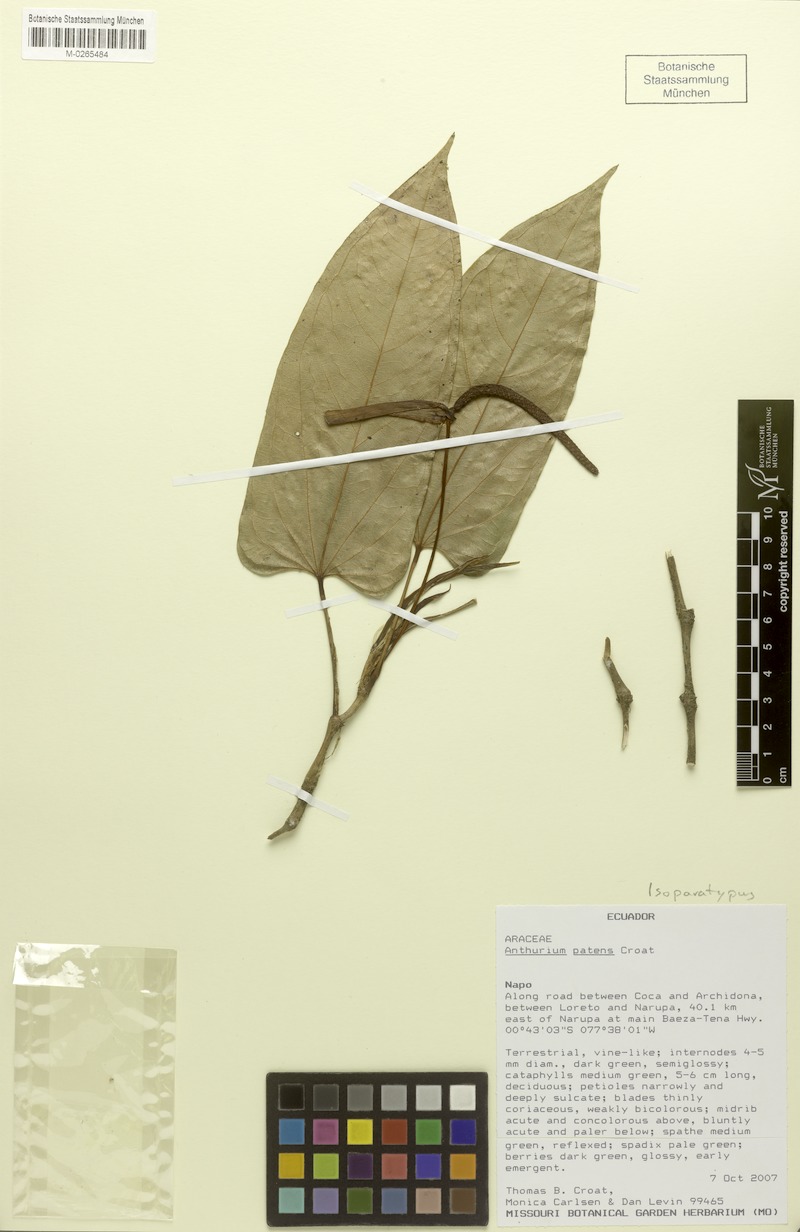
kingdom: Plantae
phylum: Tracheophyta
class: Liliopsida
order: Alismatales
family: Araceae
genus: Anthurium
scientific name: Anthurium patens
